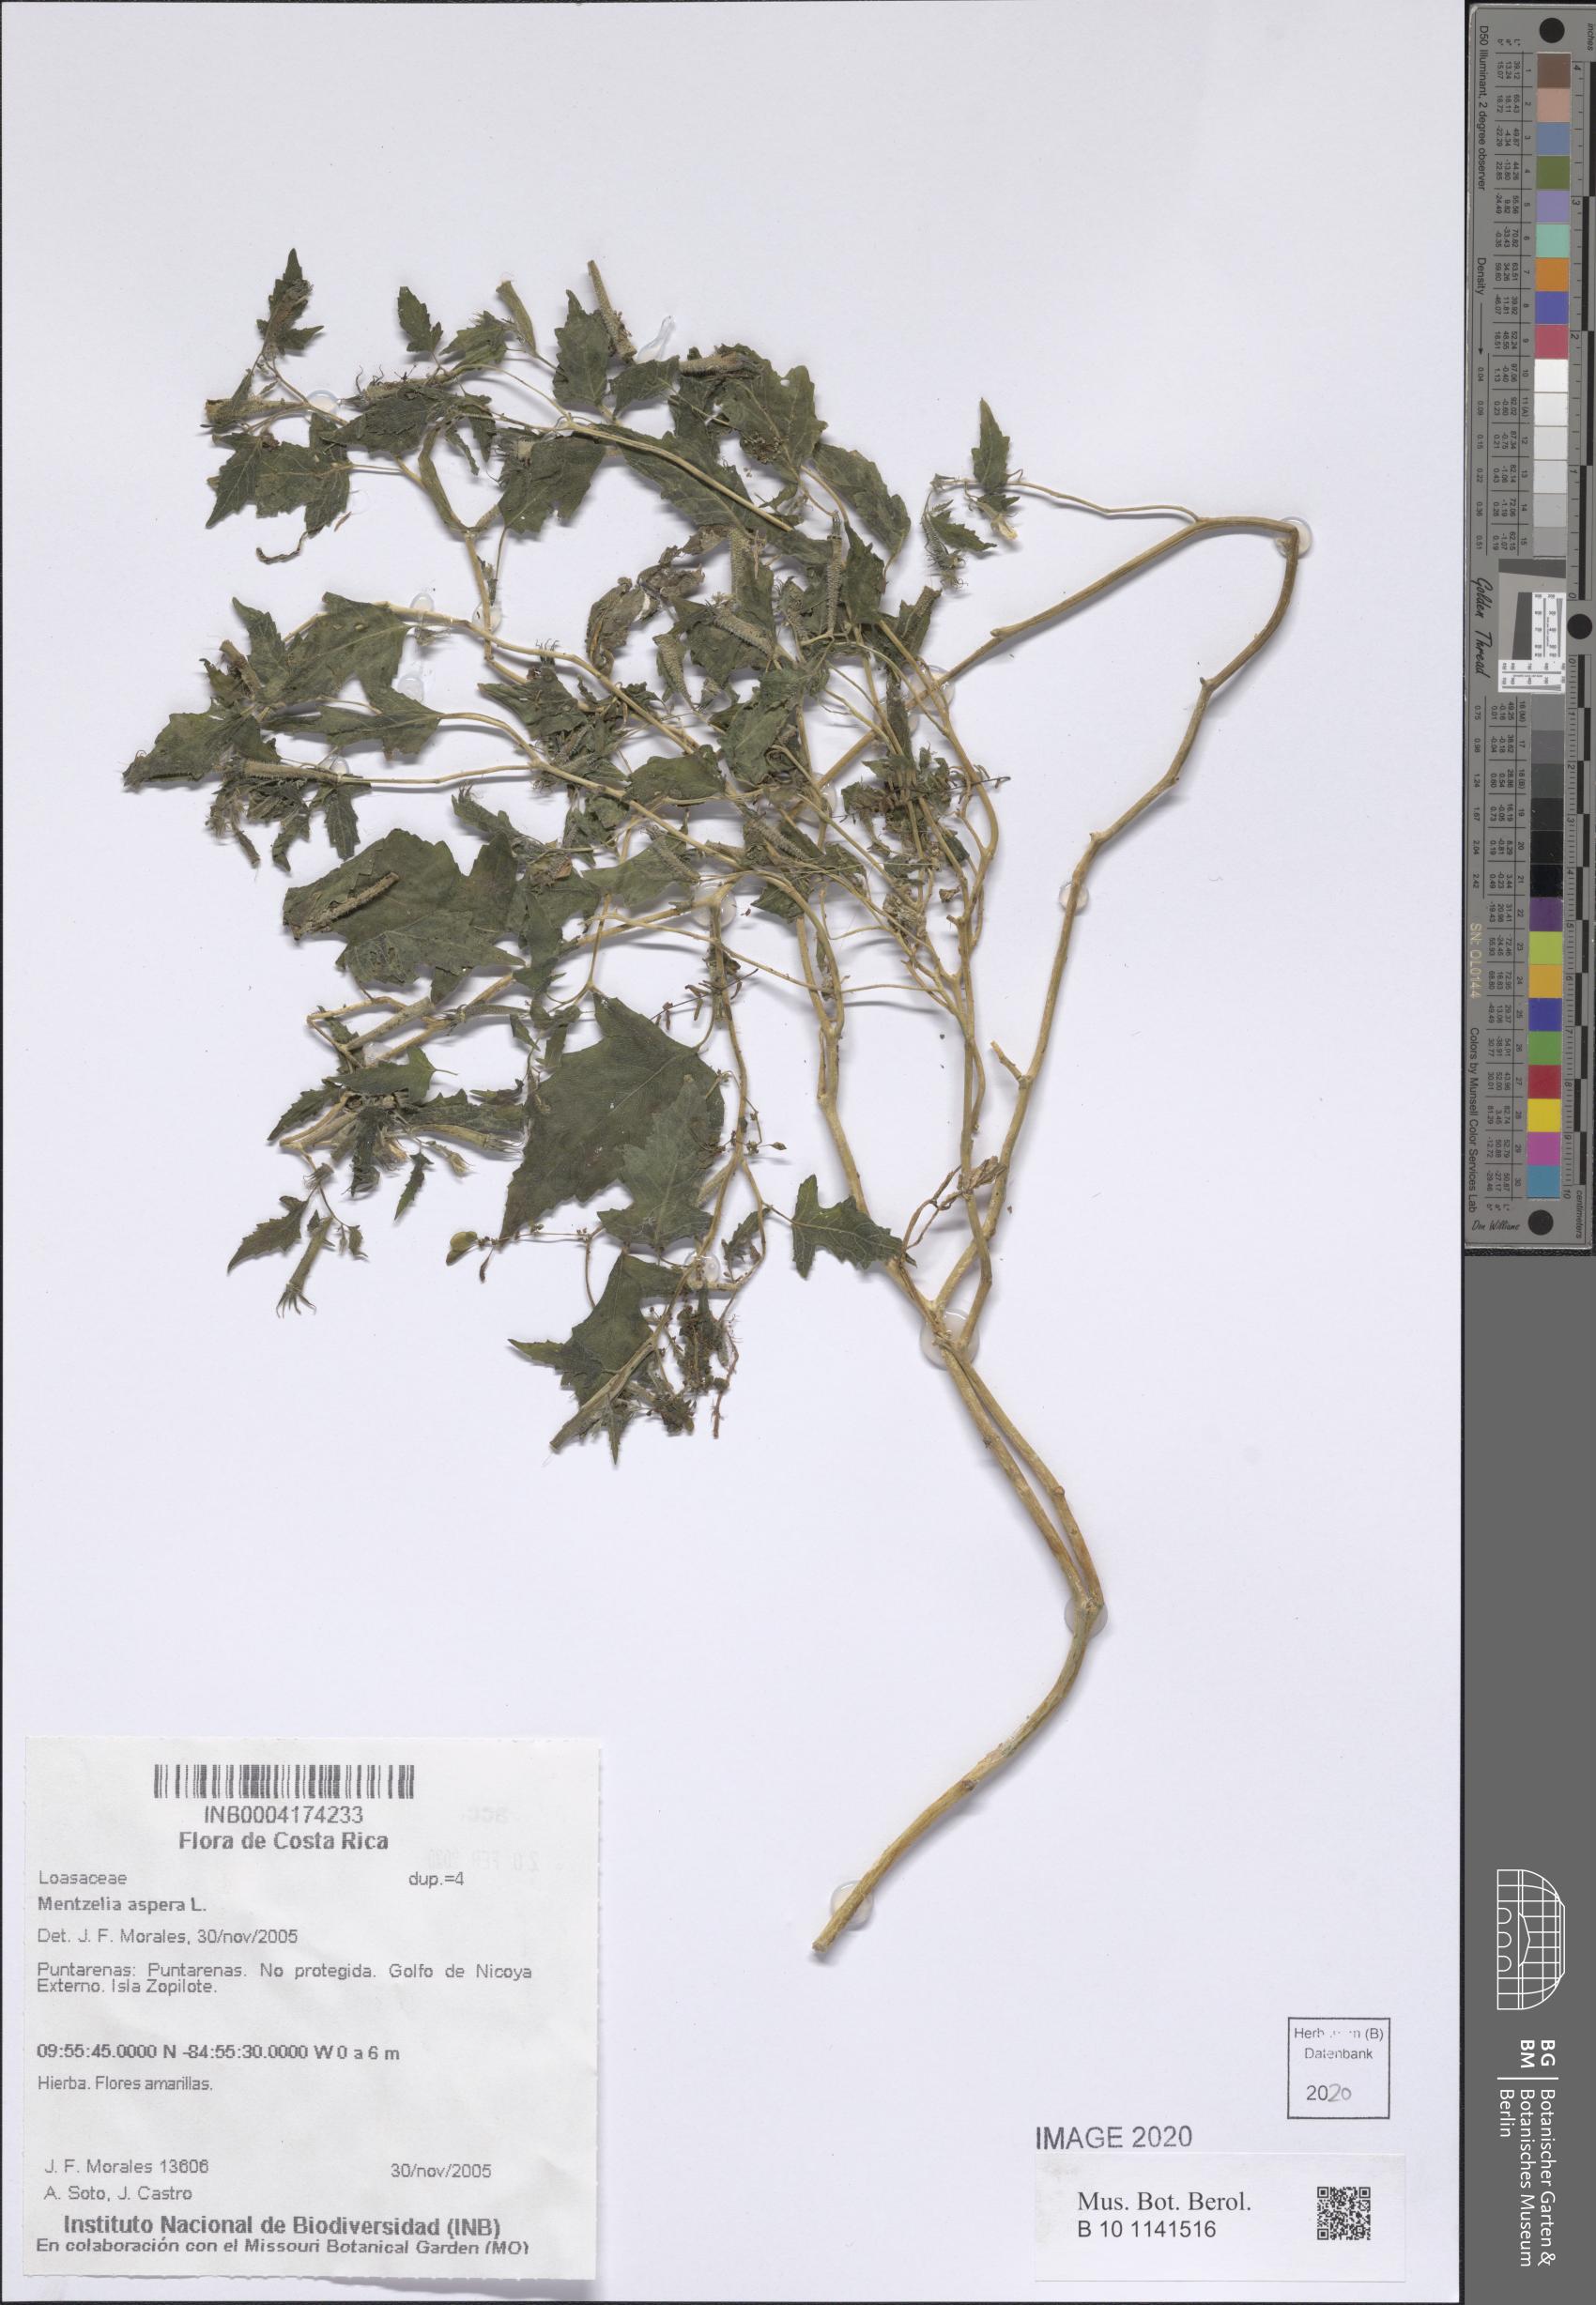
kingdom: Plantae
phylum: Tracheophyta
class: Magnoliopsida
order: Cornales
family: Loasaceae
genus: Mentzelia
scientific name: Mentzelia aspera
